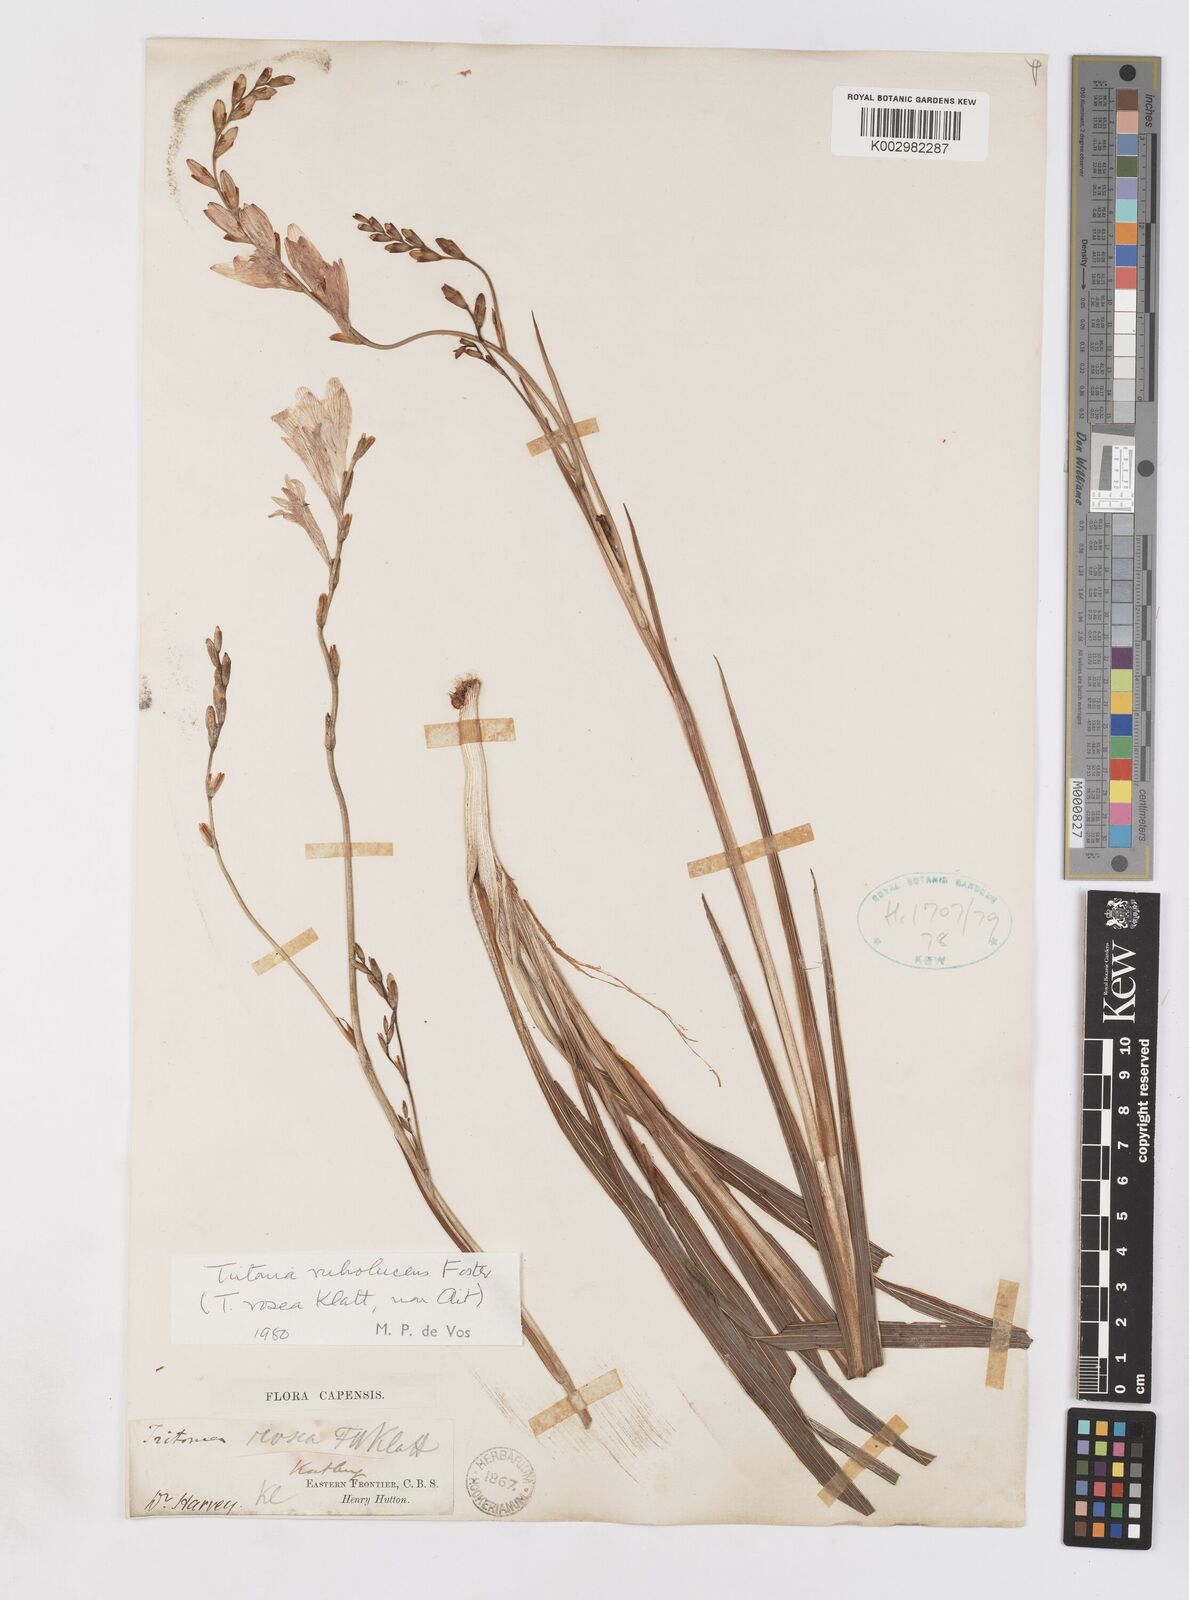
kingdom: Plantae
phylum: Tracheophyta
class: Liliopsida
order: Asparagales
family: Iridaceae
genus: Tritonia
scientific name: Tritonia disticha
